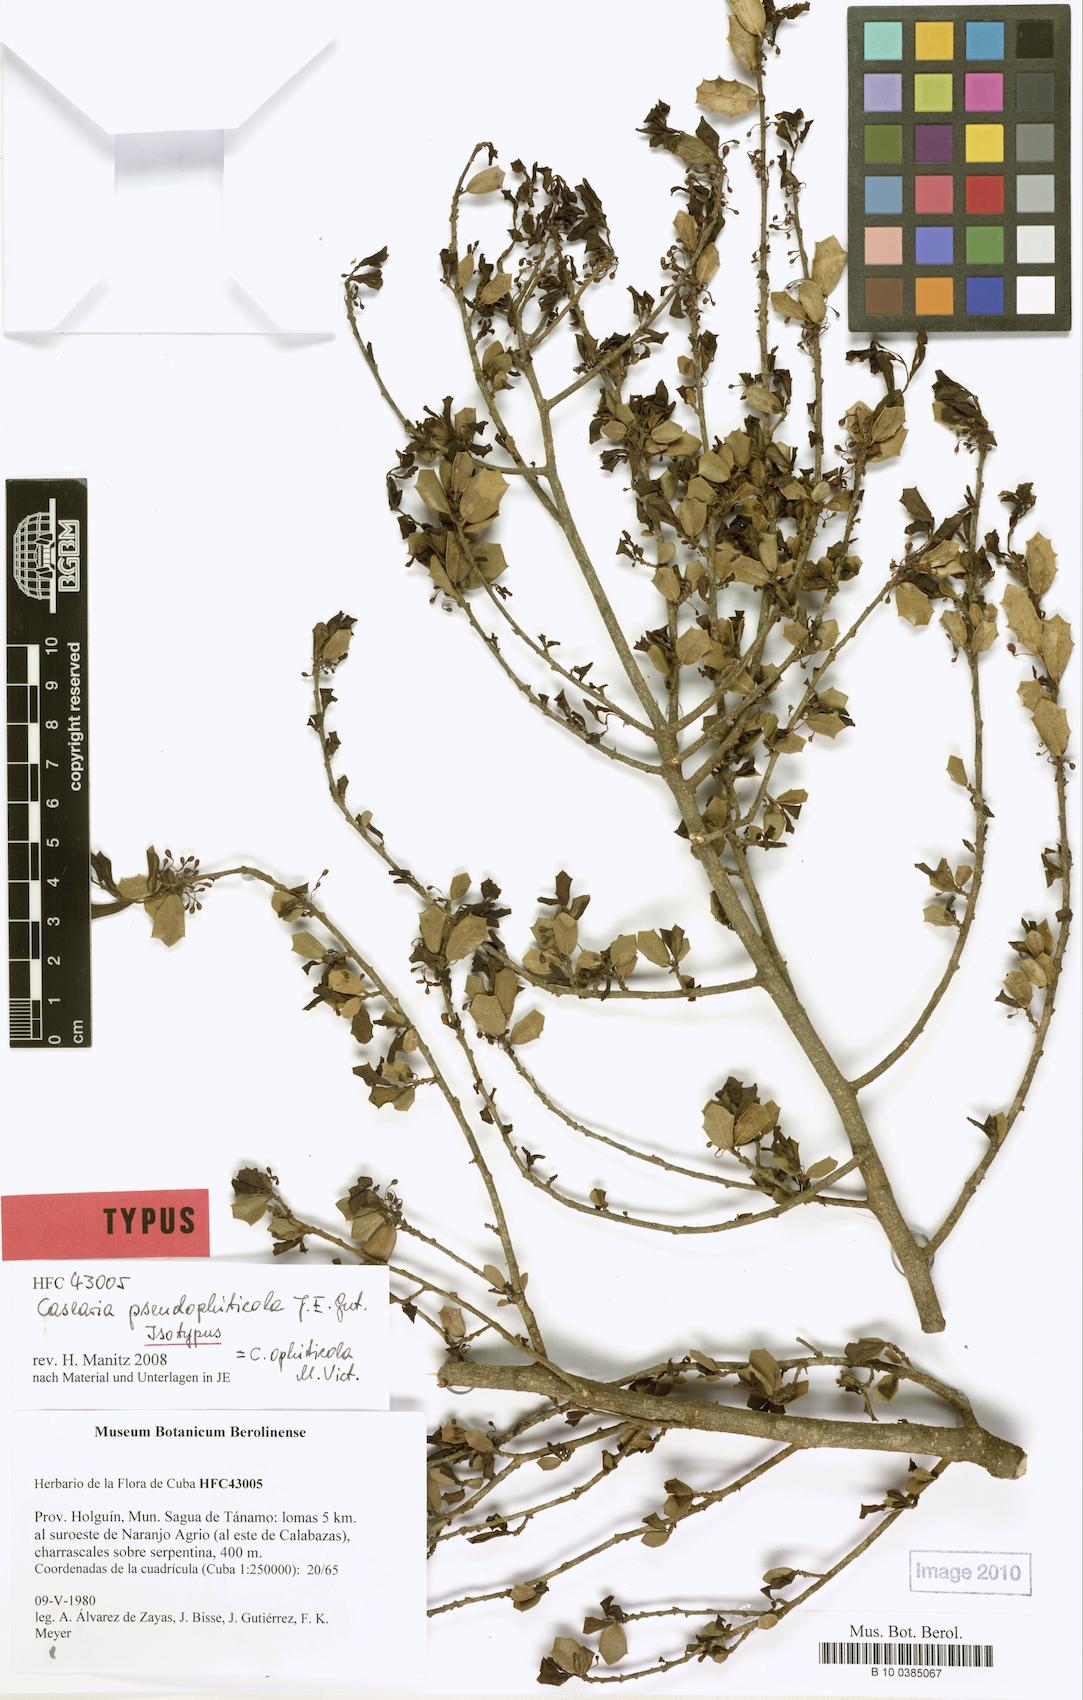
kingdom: Plantae
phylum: Tracheophyta
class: Magnoliopsida
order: Malpighiales
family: Salicaceae
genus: Casearia
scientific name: Casearia pseudophiticola
